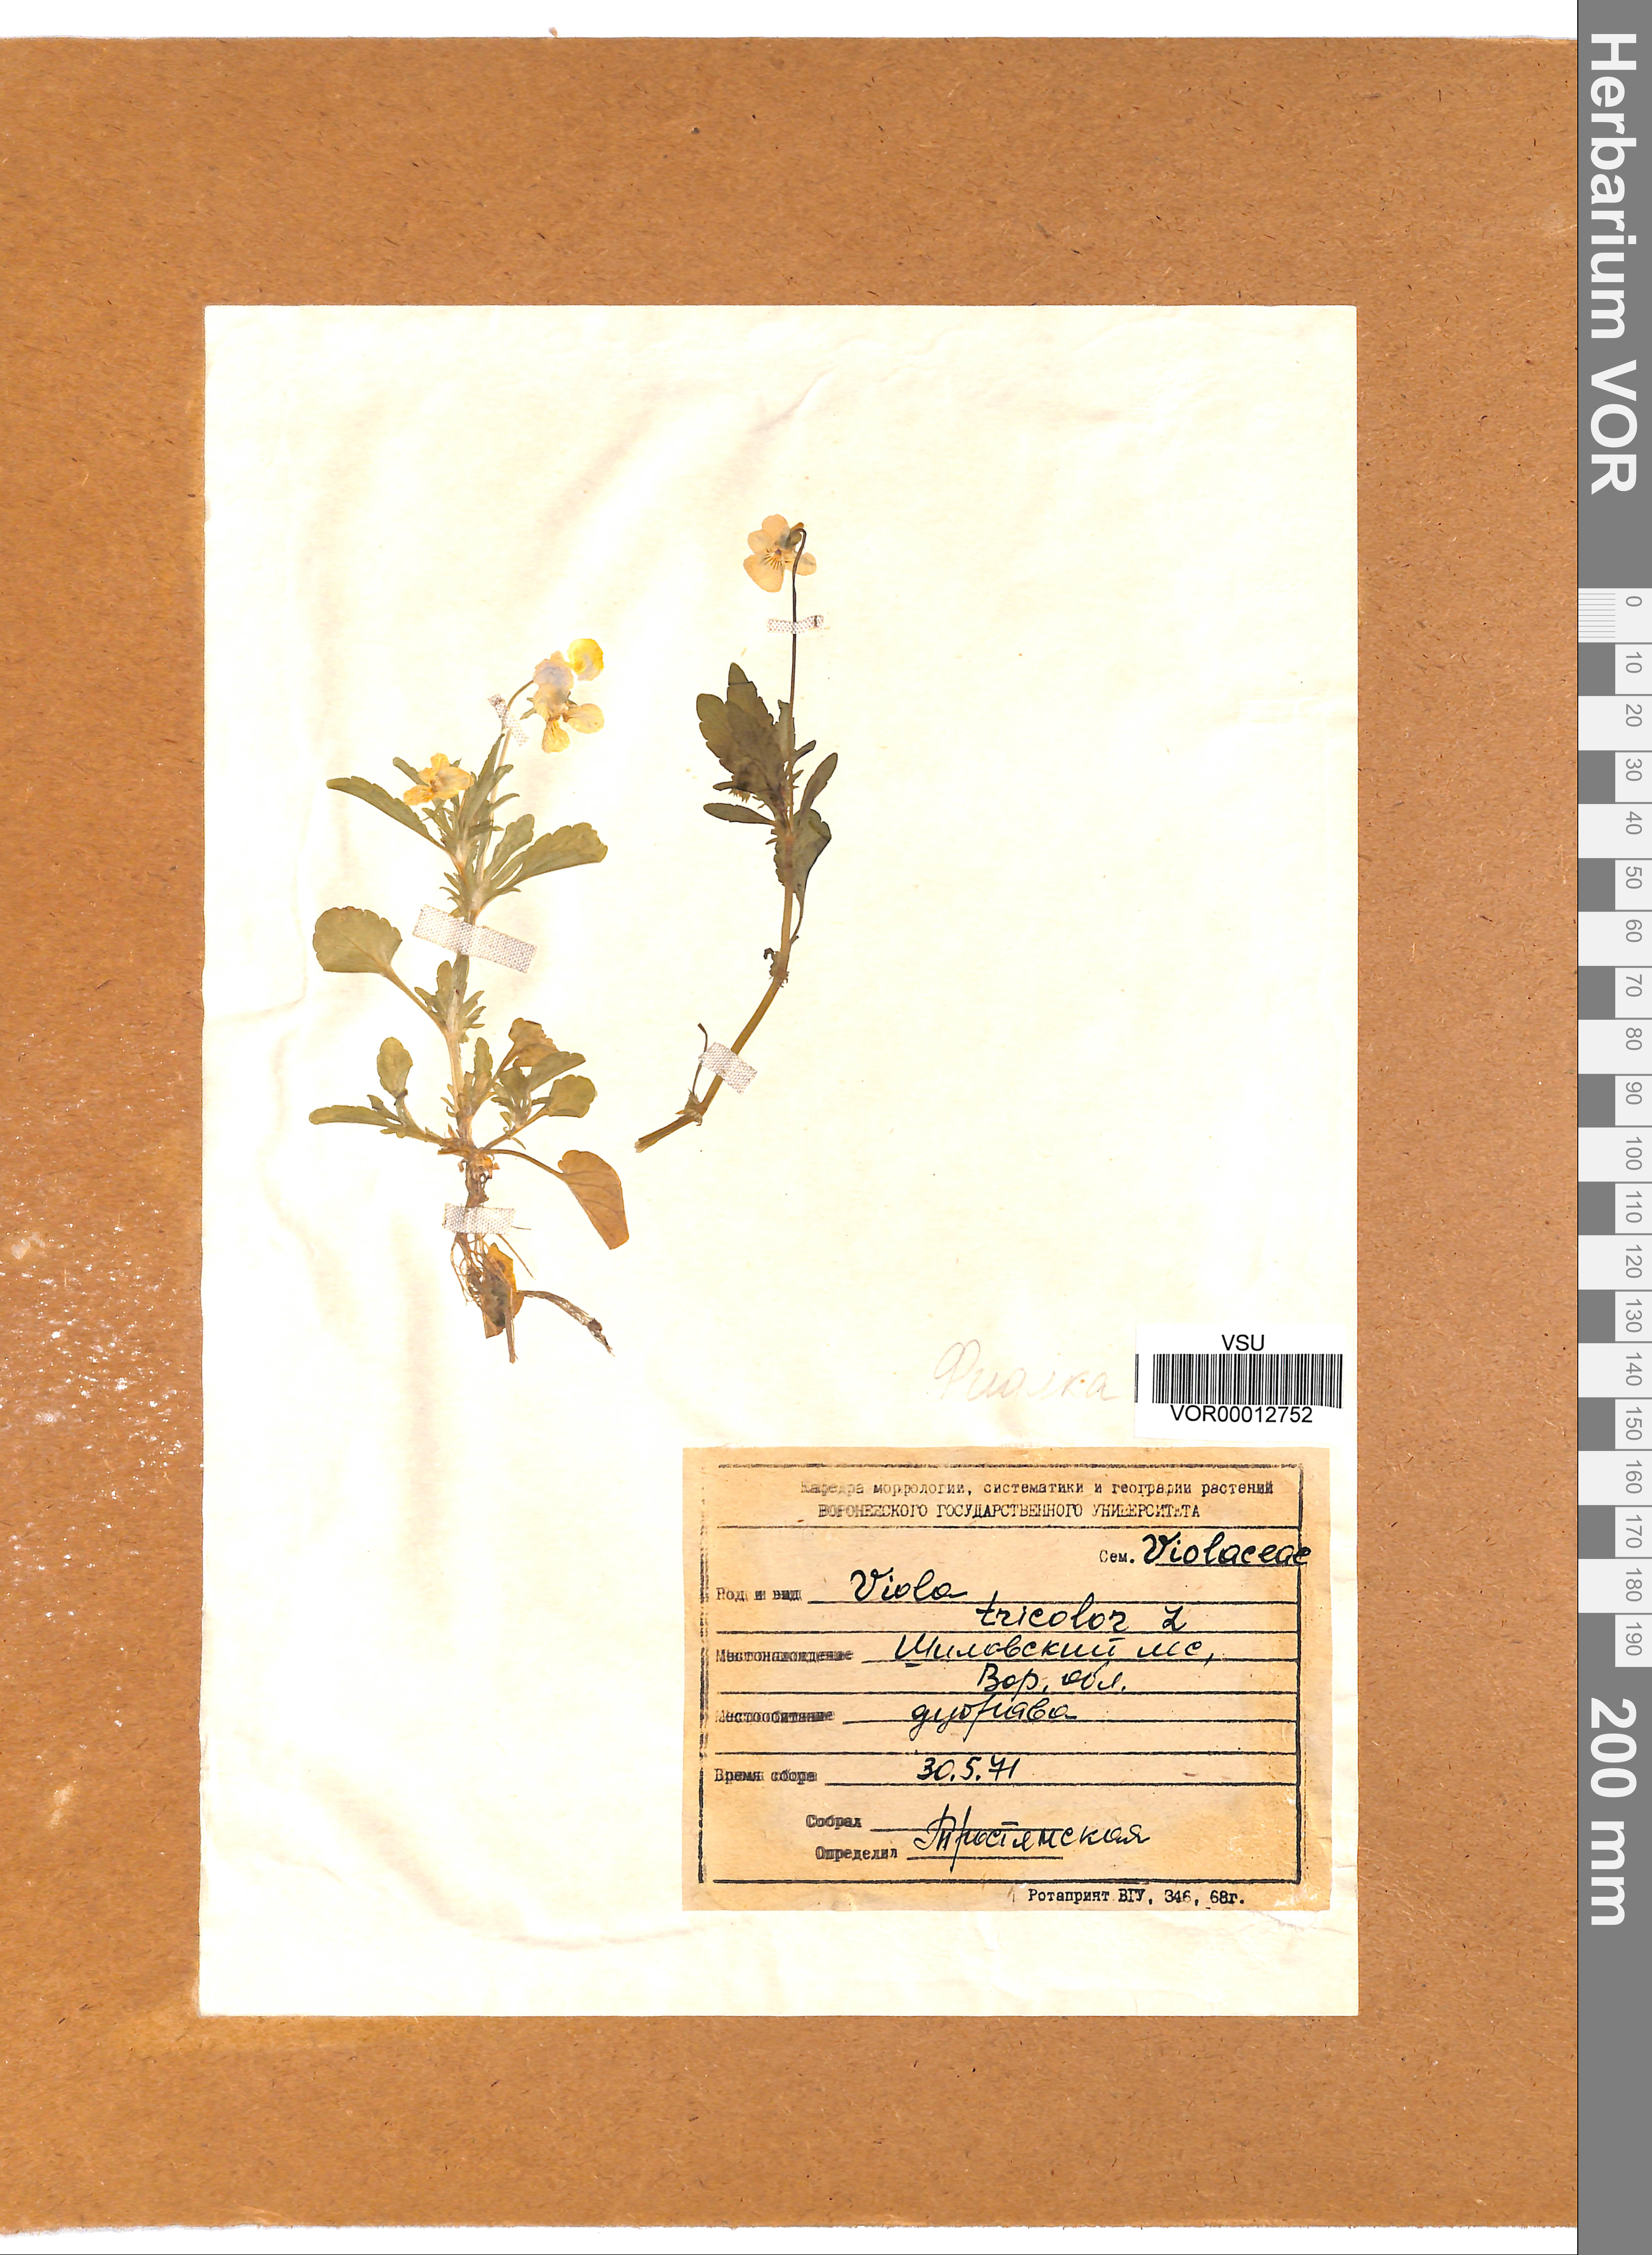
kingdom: Plantae
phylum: Tracheophyta
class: Magnoliopsida
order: Malpighiales
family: Violaceae
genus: Viola
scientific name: Viola tricolor
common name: Pansy
